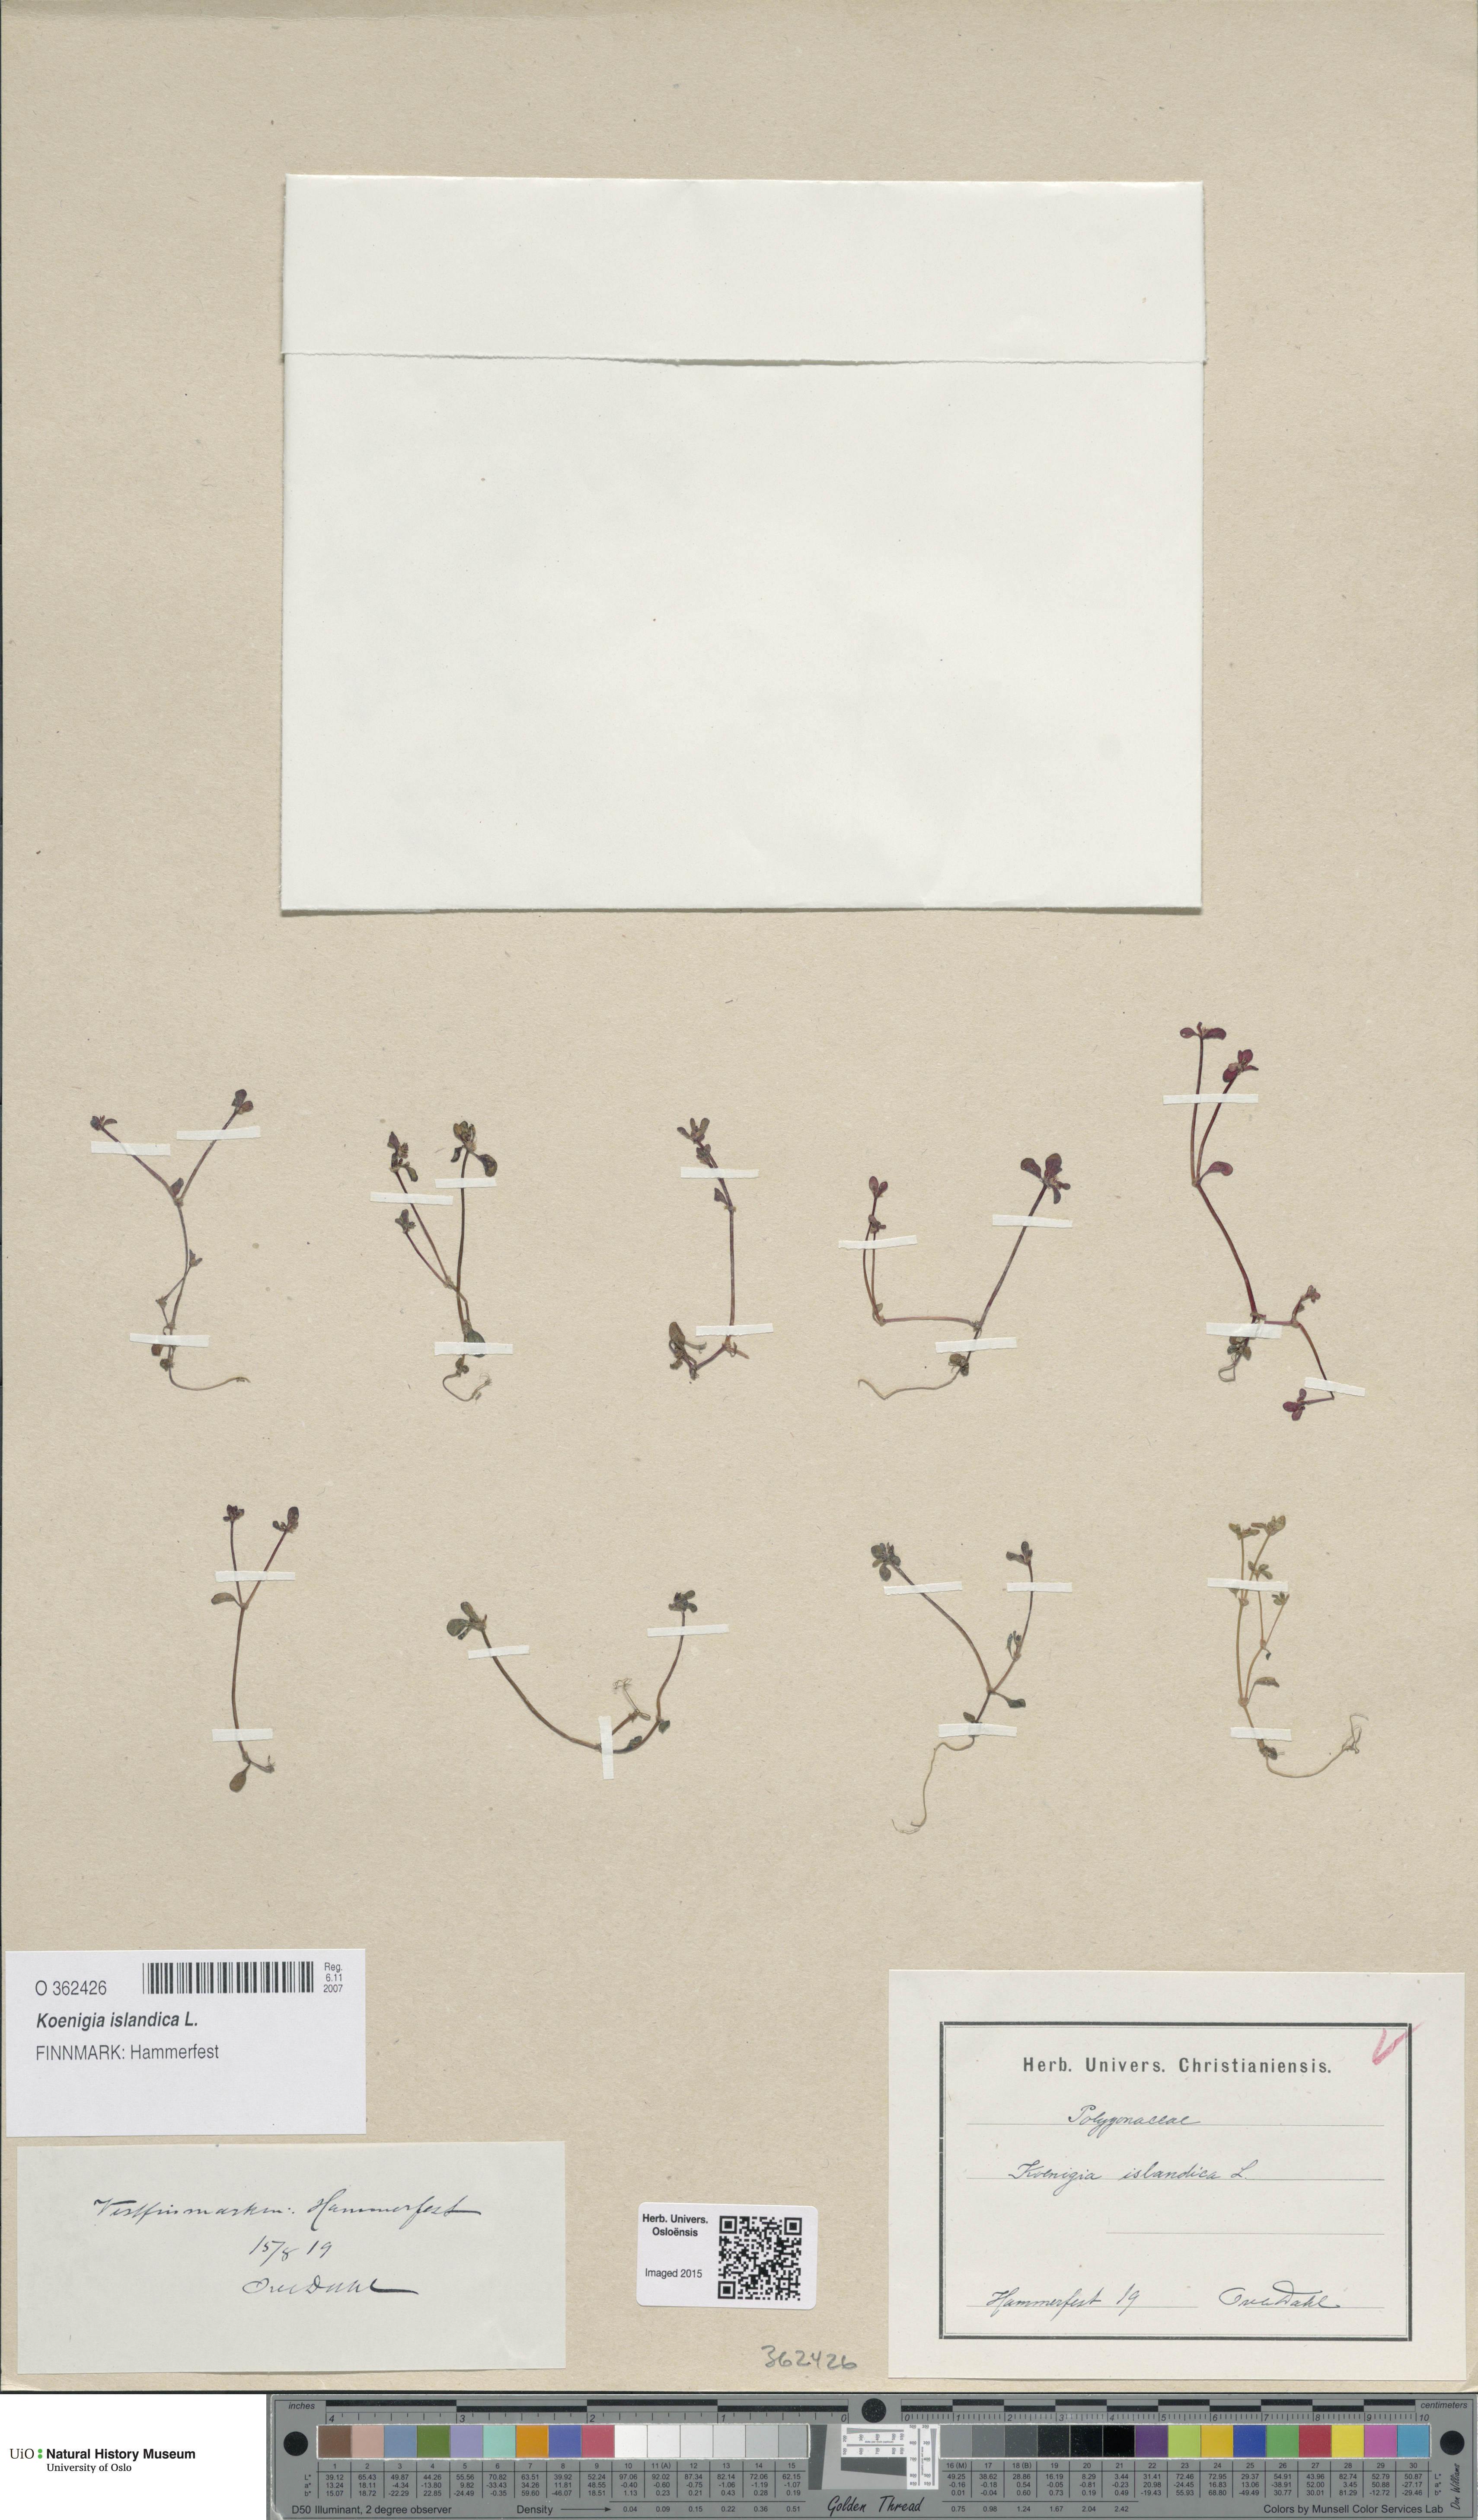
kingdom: Plantae
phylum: Tracheophyta
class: Magnoliopsida
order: Caryophyllales
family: Polygonaceae
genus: Koenigia
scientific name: Koenigia islandica
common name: Iceland-purslane
